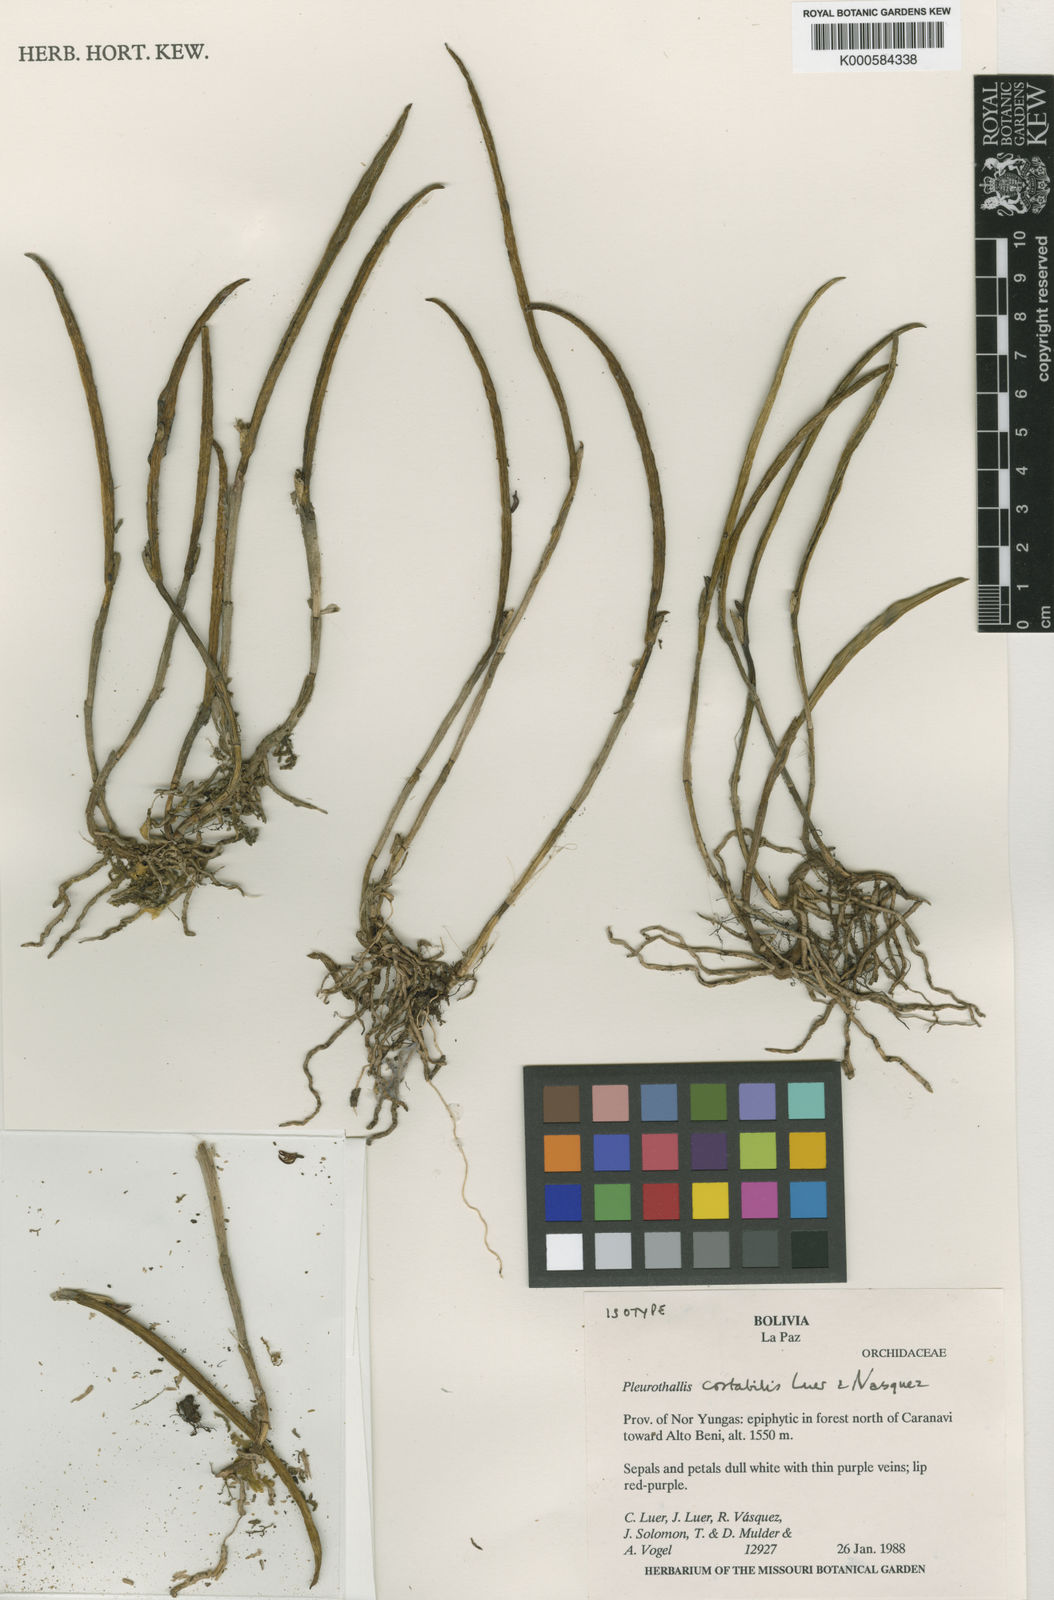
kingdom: Plantae
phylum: Tracheophyta
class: Liliopsida
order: Asparagales
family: Orchidaceae
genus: Lepanthes
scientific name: Lepanthes
